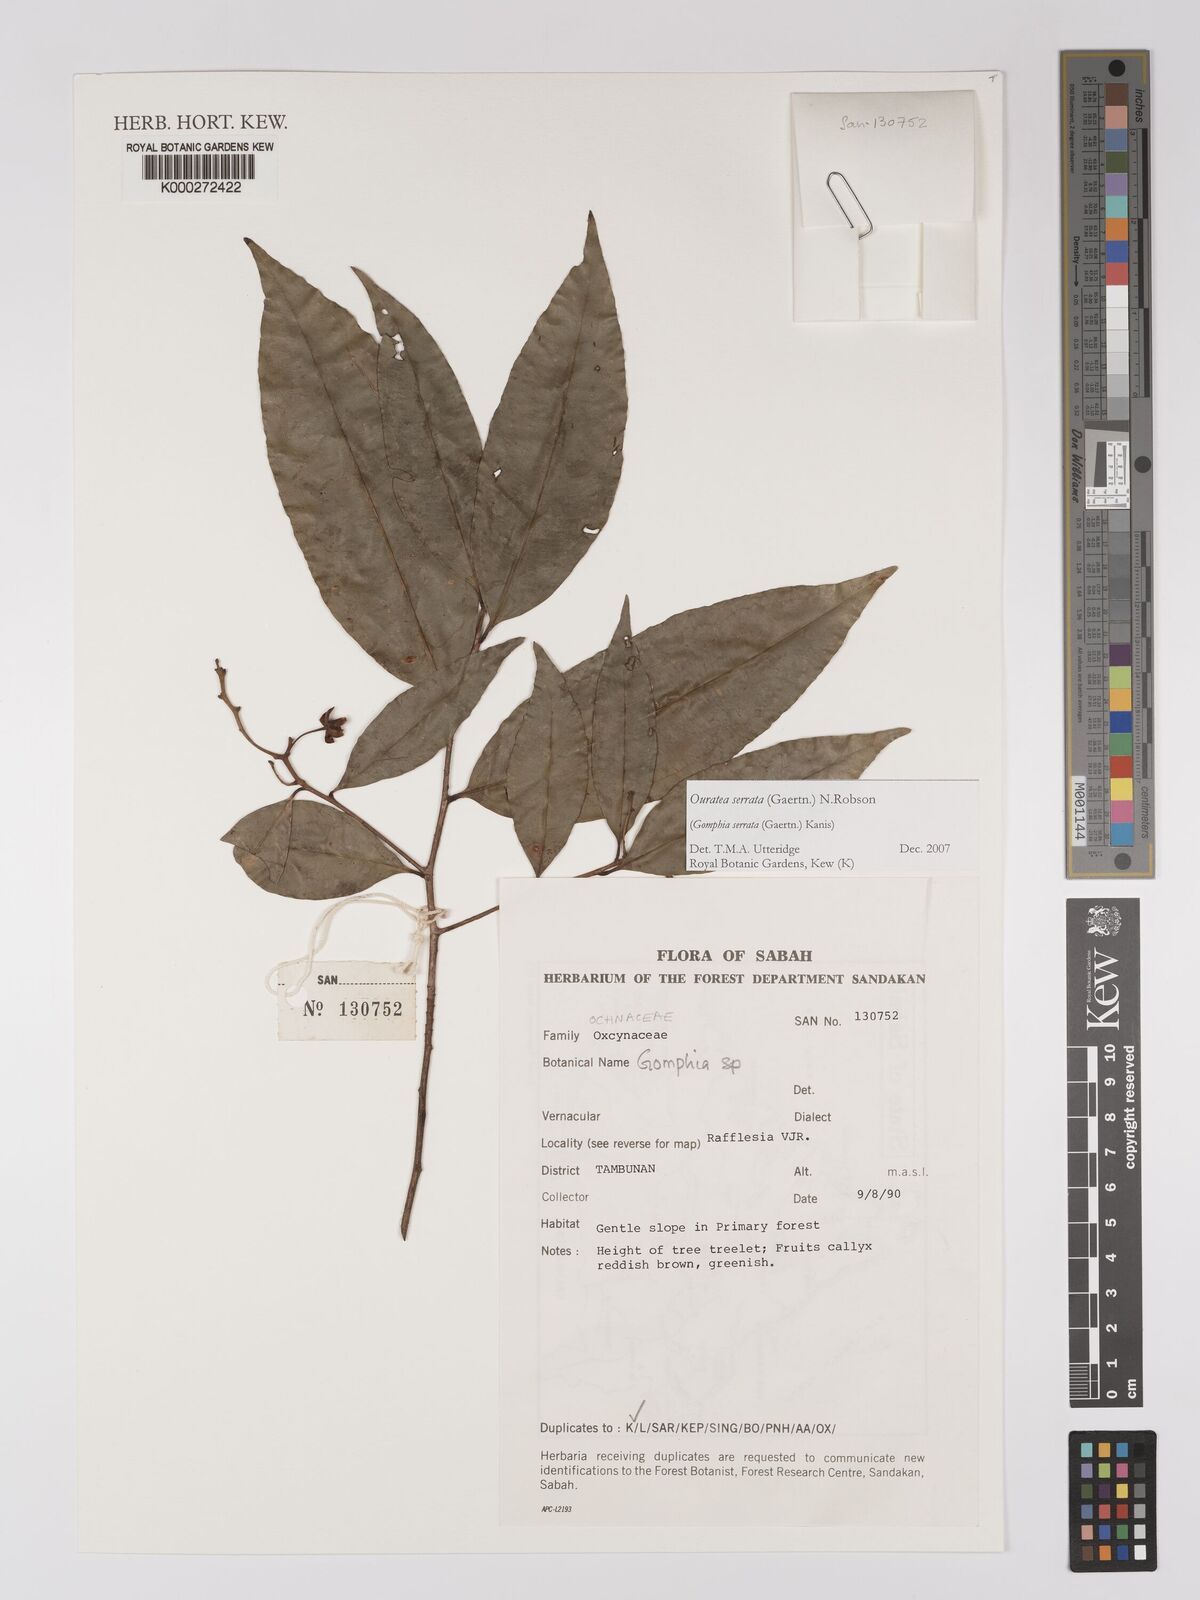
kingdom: Plantae
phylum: Tracheophyta
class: Magnoliopsida
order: Malpighiales
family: Ochnaceae
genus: Gomphia
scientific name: Gomphia serrata
